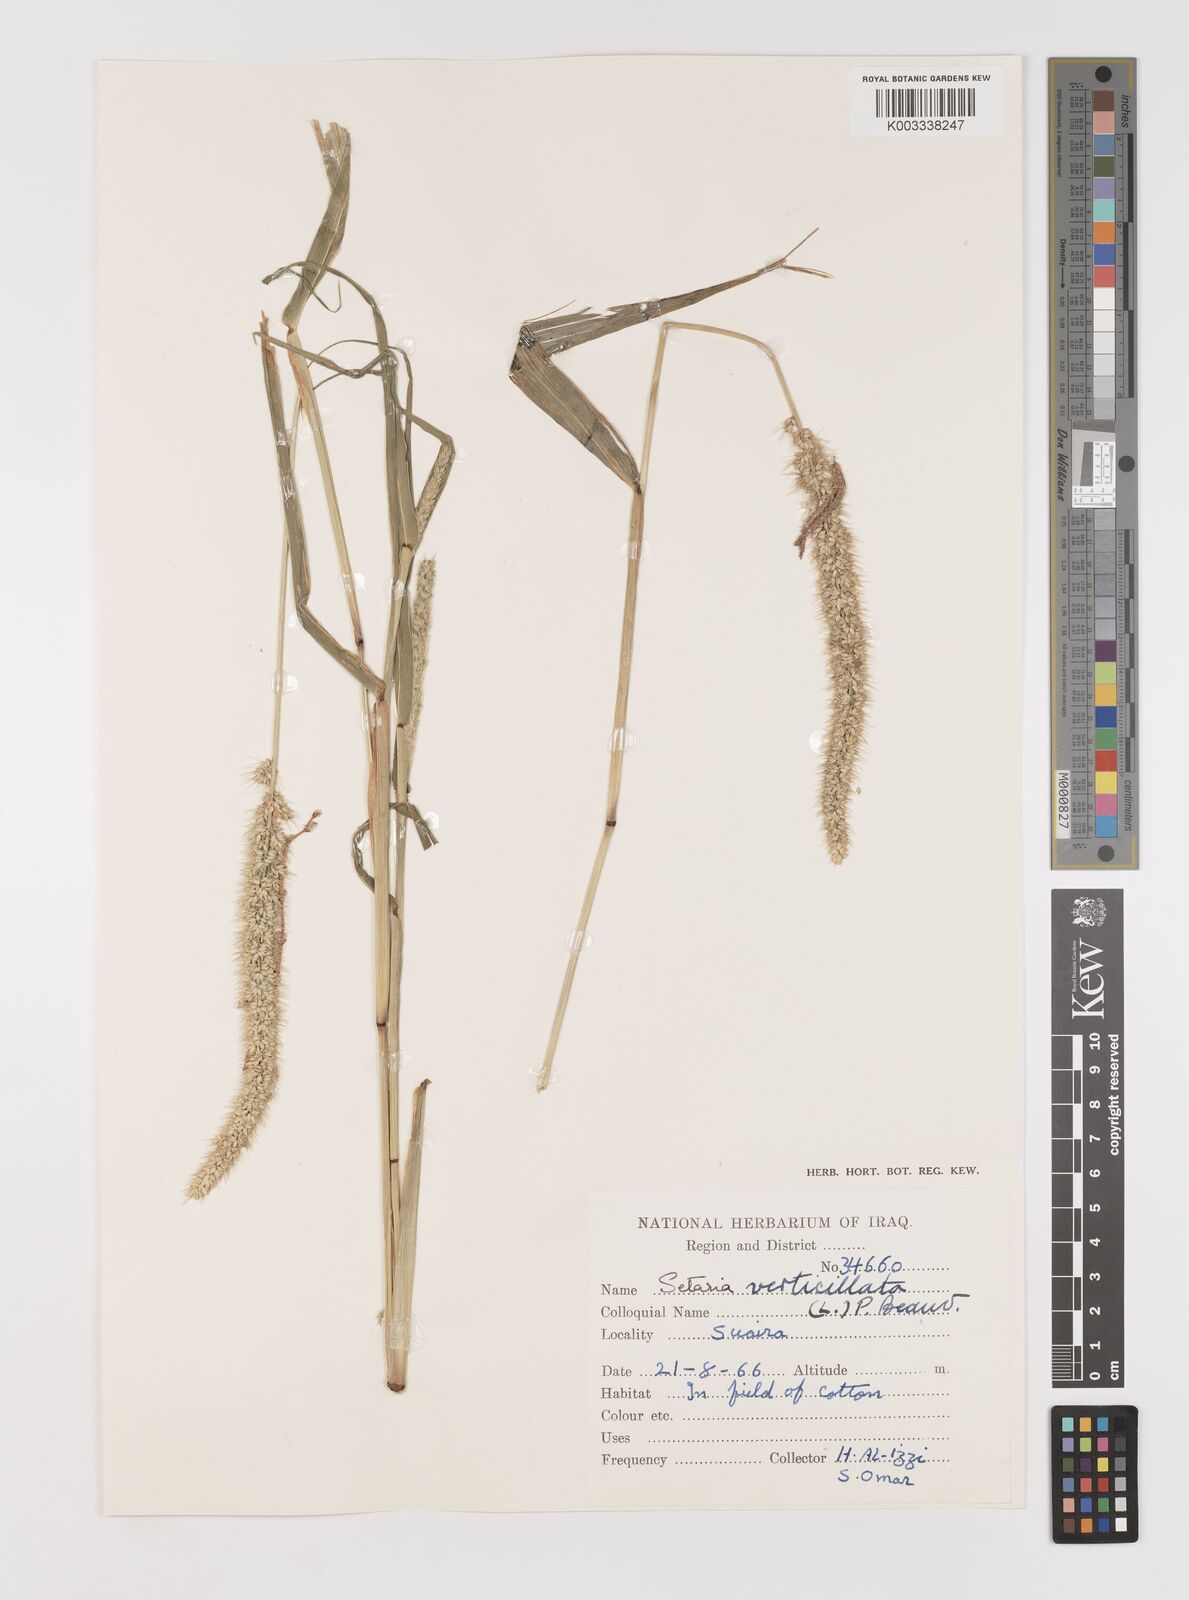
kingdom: Plantae
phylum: Tracheophyta
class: Liliopsida
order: Poales
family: Poaceae
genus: Setaria
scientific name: Setaria verticillata
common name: Hooked bristlegrass
